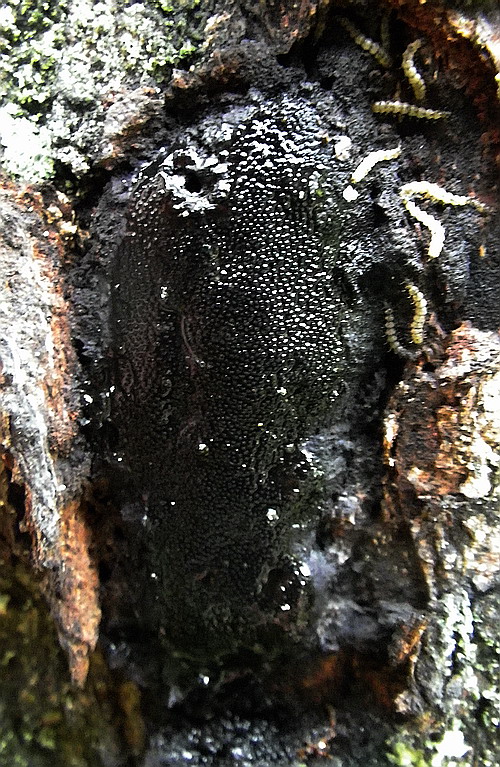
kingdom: Fungi
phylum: Ascomycota
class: Sordariomycetes
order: Boliniales
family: Boliniaceae
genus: Camarops
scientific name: Camarops polysperma
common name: elle-kulsnegl
